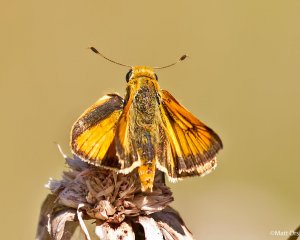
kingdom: Animalia
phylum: Arthropoda
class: Insecta
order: Lepidoptera
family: Hesperiidae
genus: Atrytone
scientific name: Atrytone delaware
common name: Delaware Skipper
